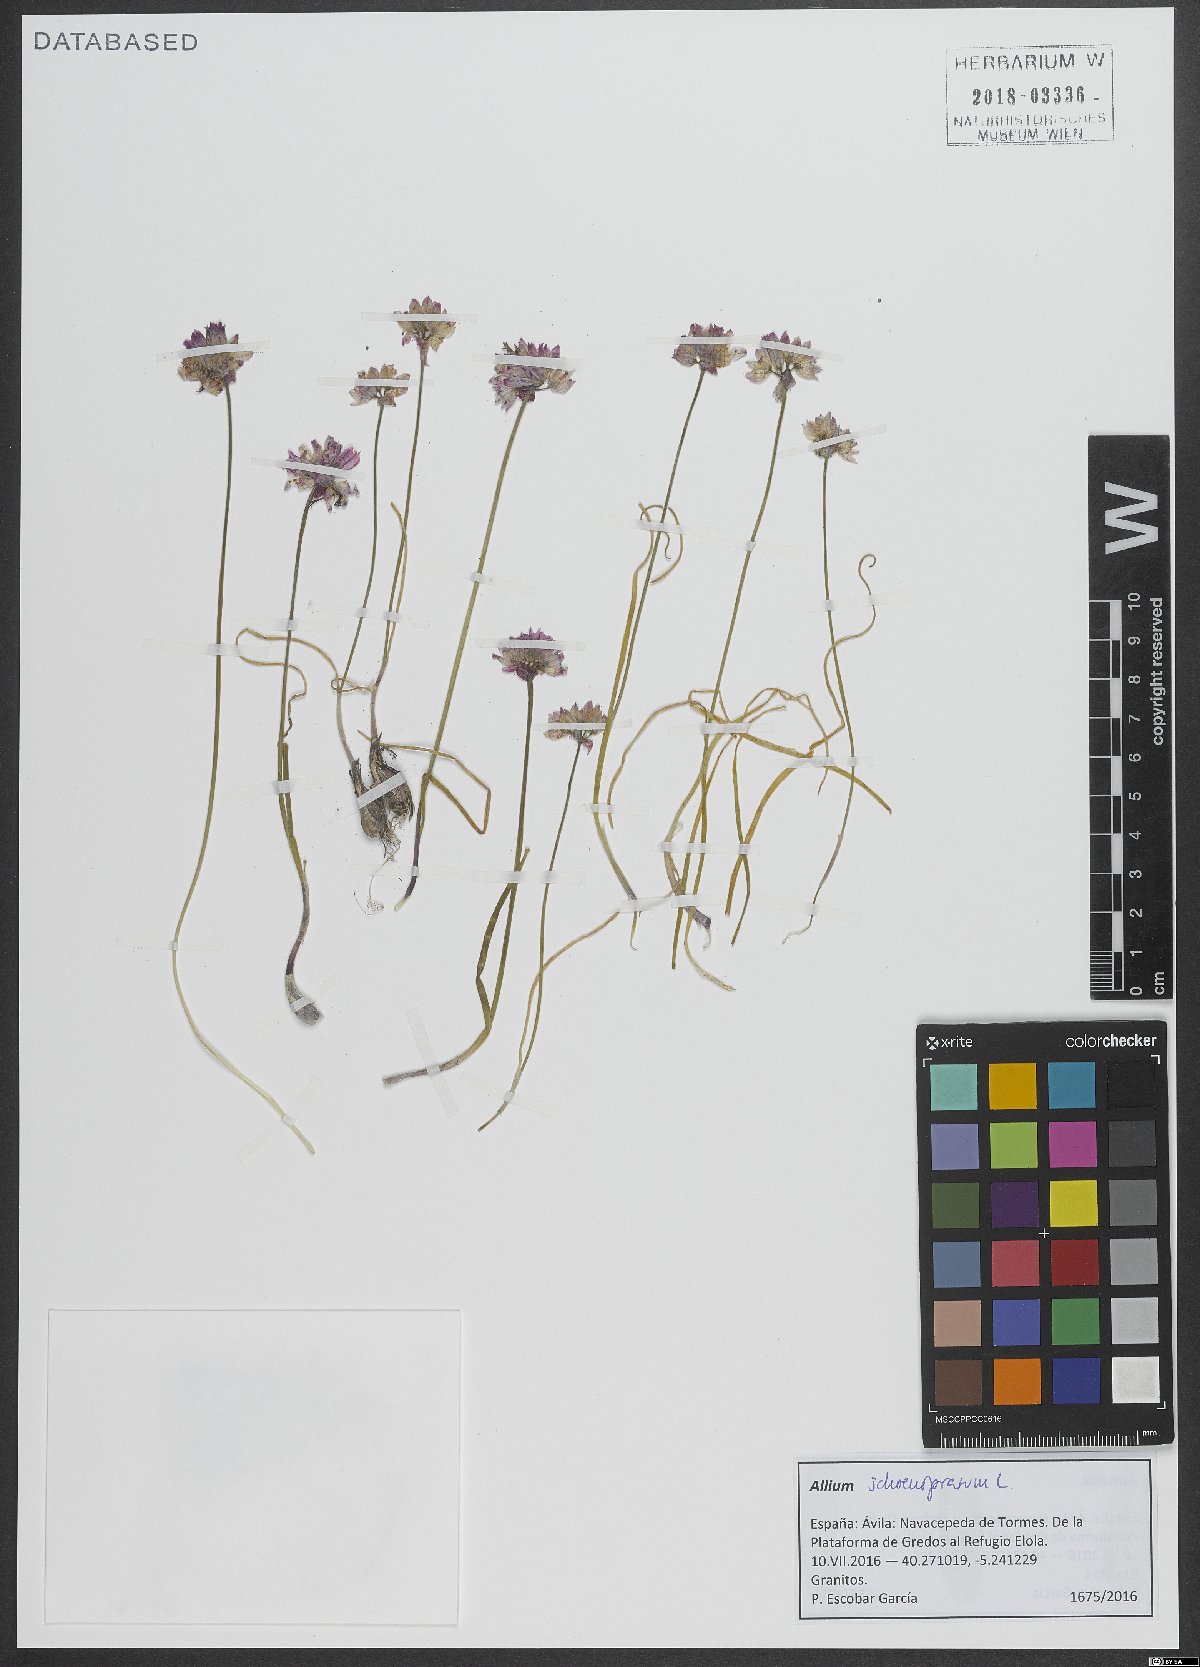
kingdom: Plantae
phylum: Tracheophyta
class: Liliopsida
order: Asparagales
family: Amaryllidaceae
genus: Allium
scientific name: Allium schoenoprasum
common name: Chives
